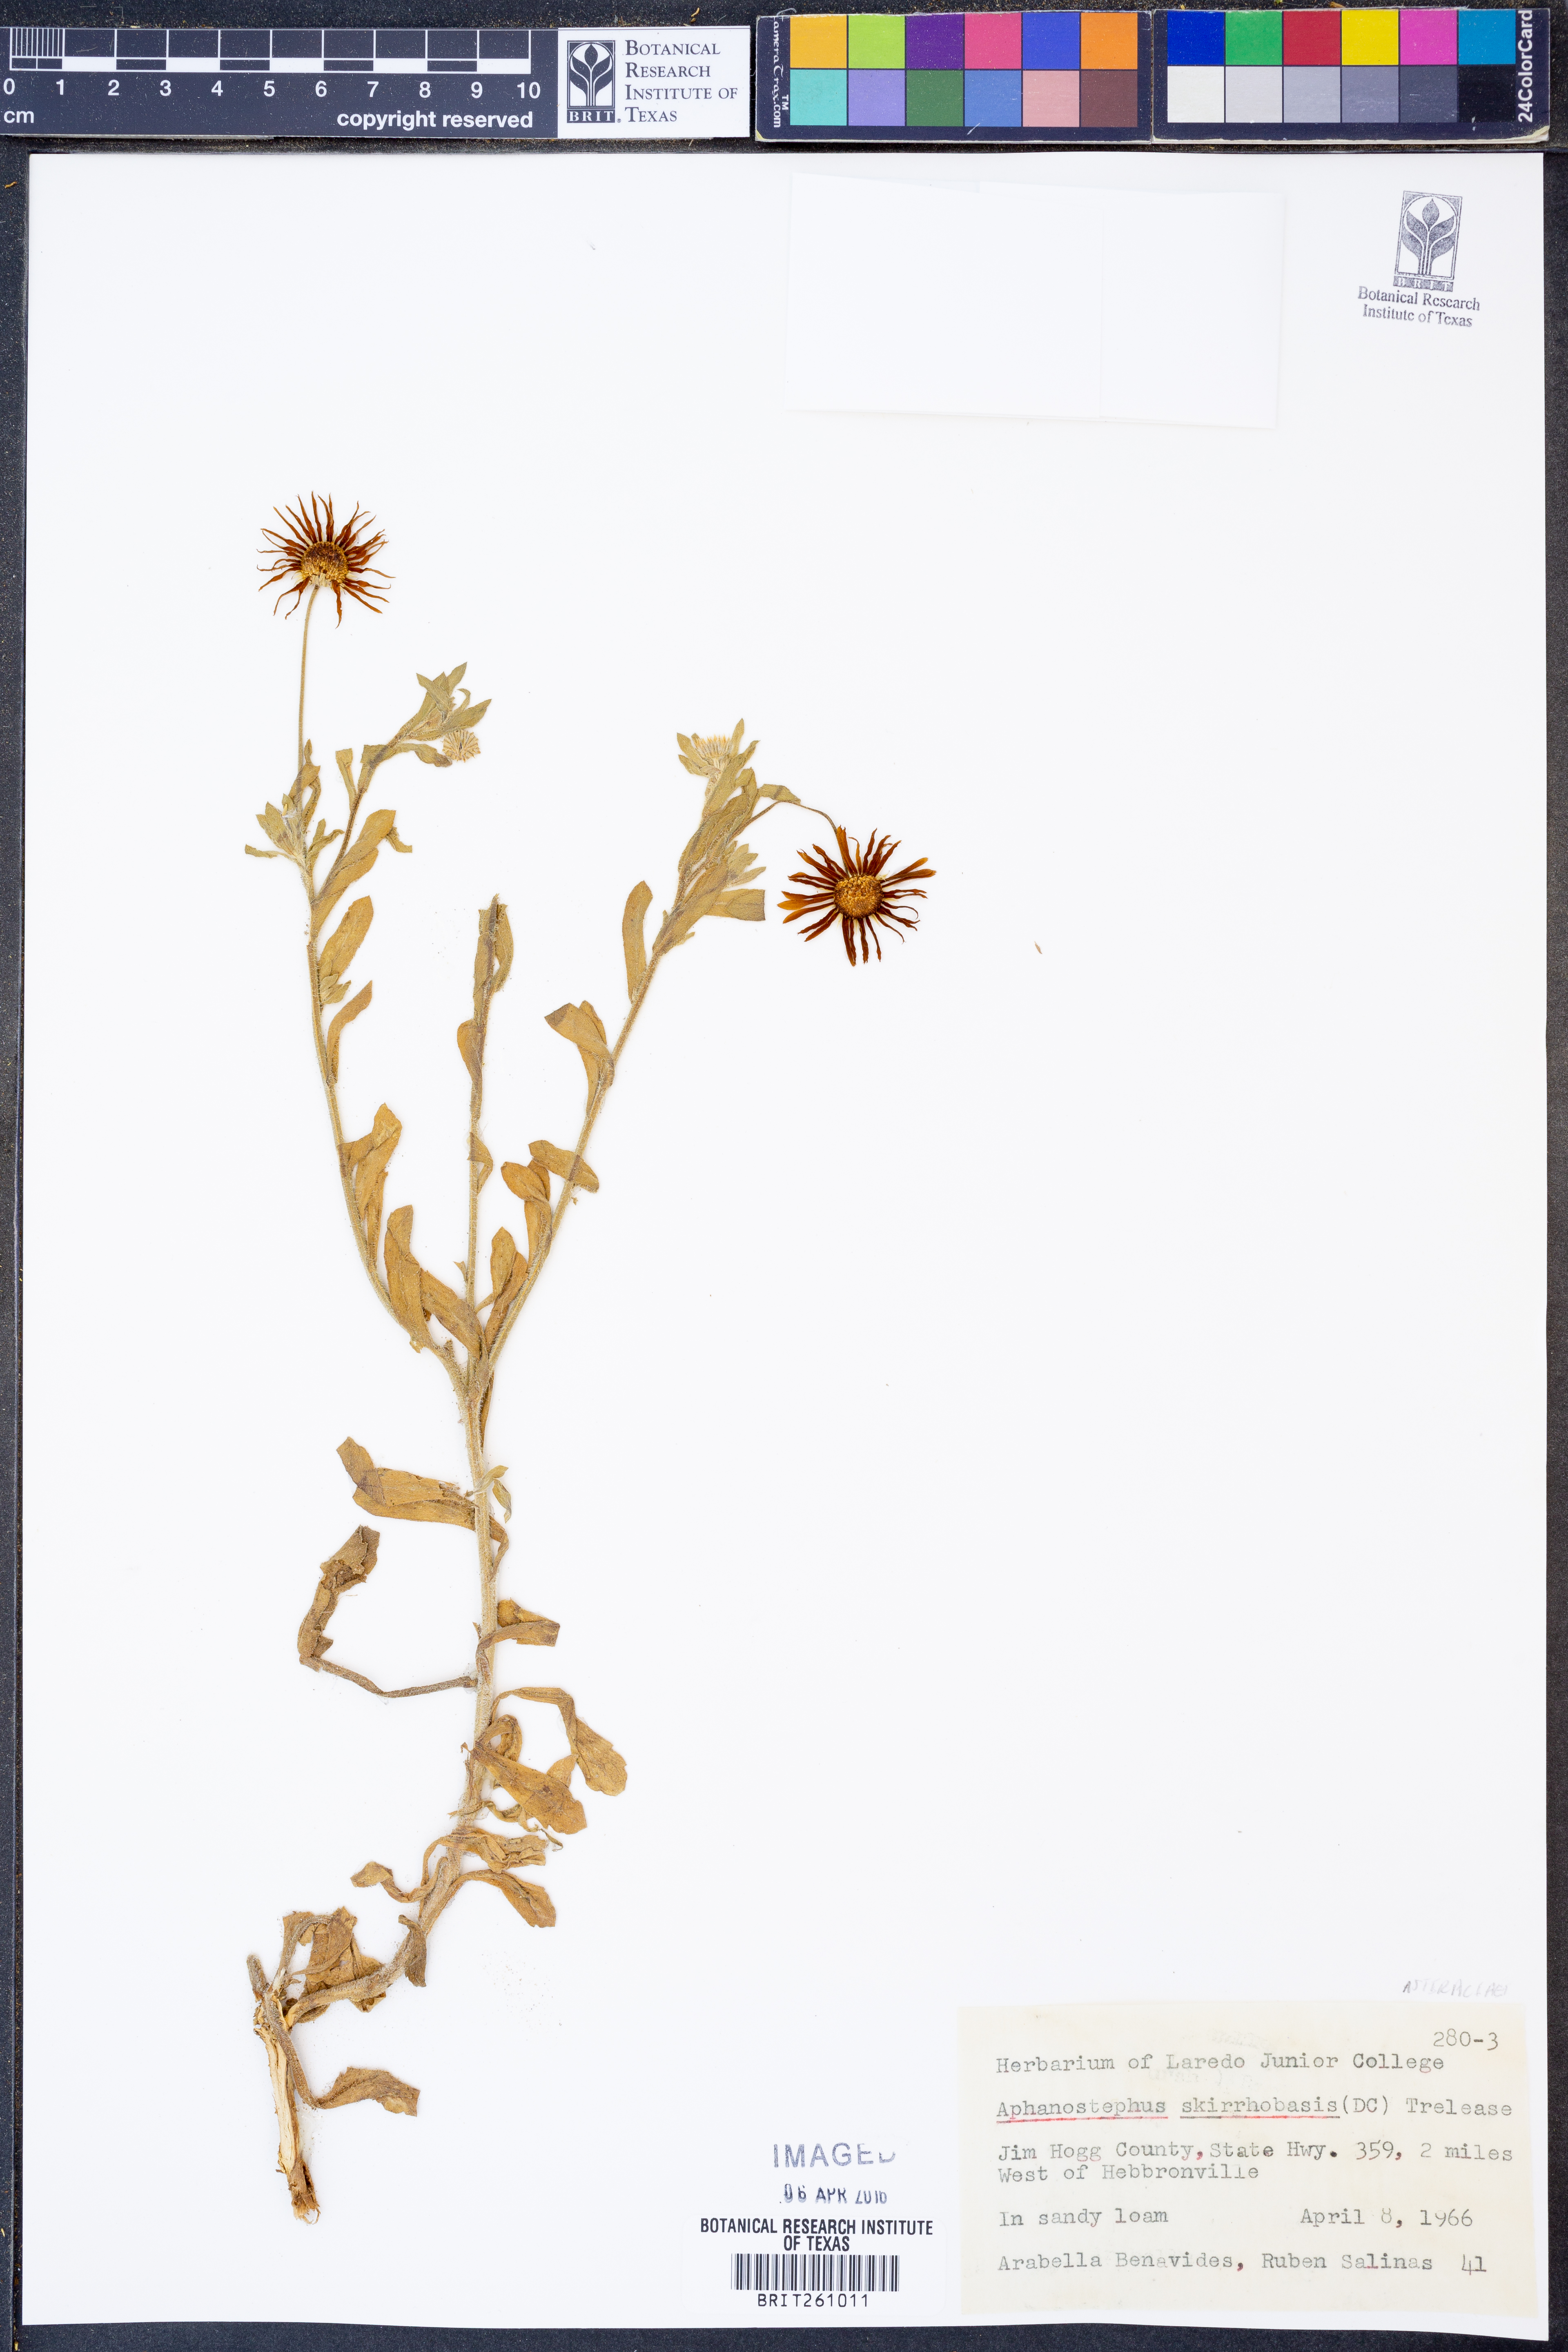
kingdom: Plantae
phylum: Tracheophyta
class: Magnoliopsida
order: Asterales
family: Asteraceae
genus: Aphanostephus
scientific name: Aphanostephus skirrhobasis
